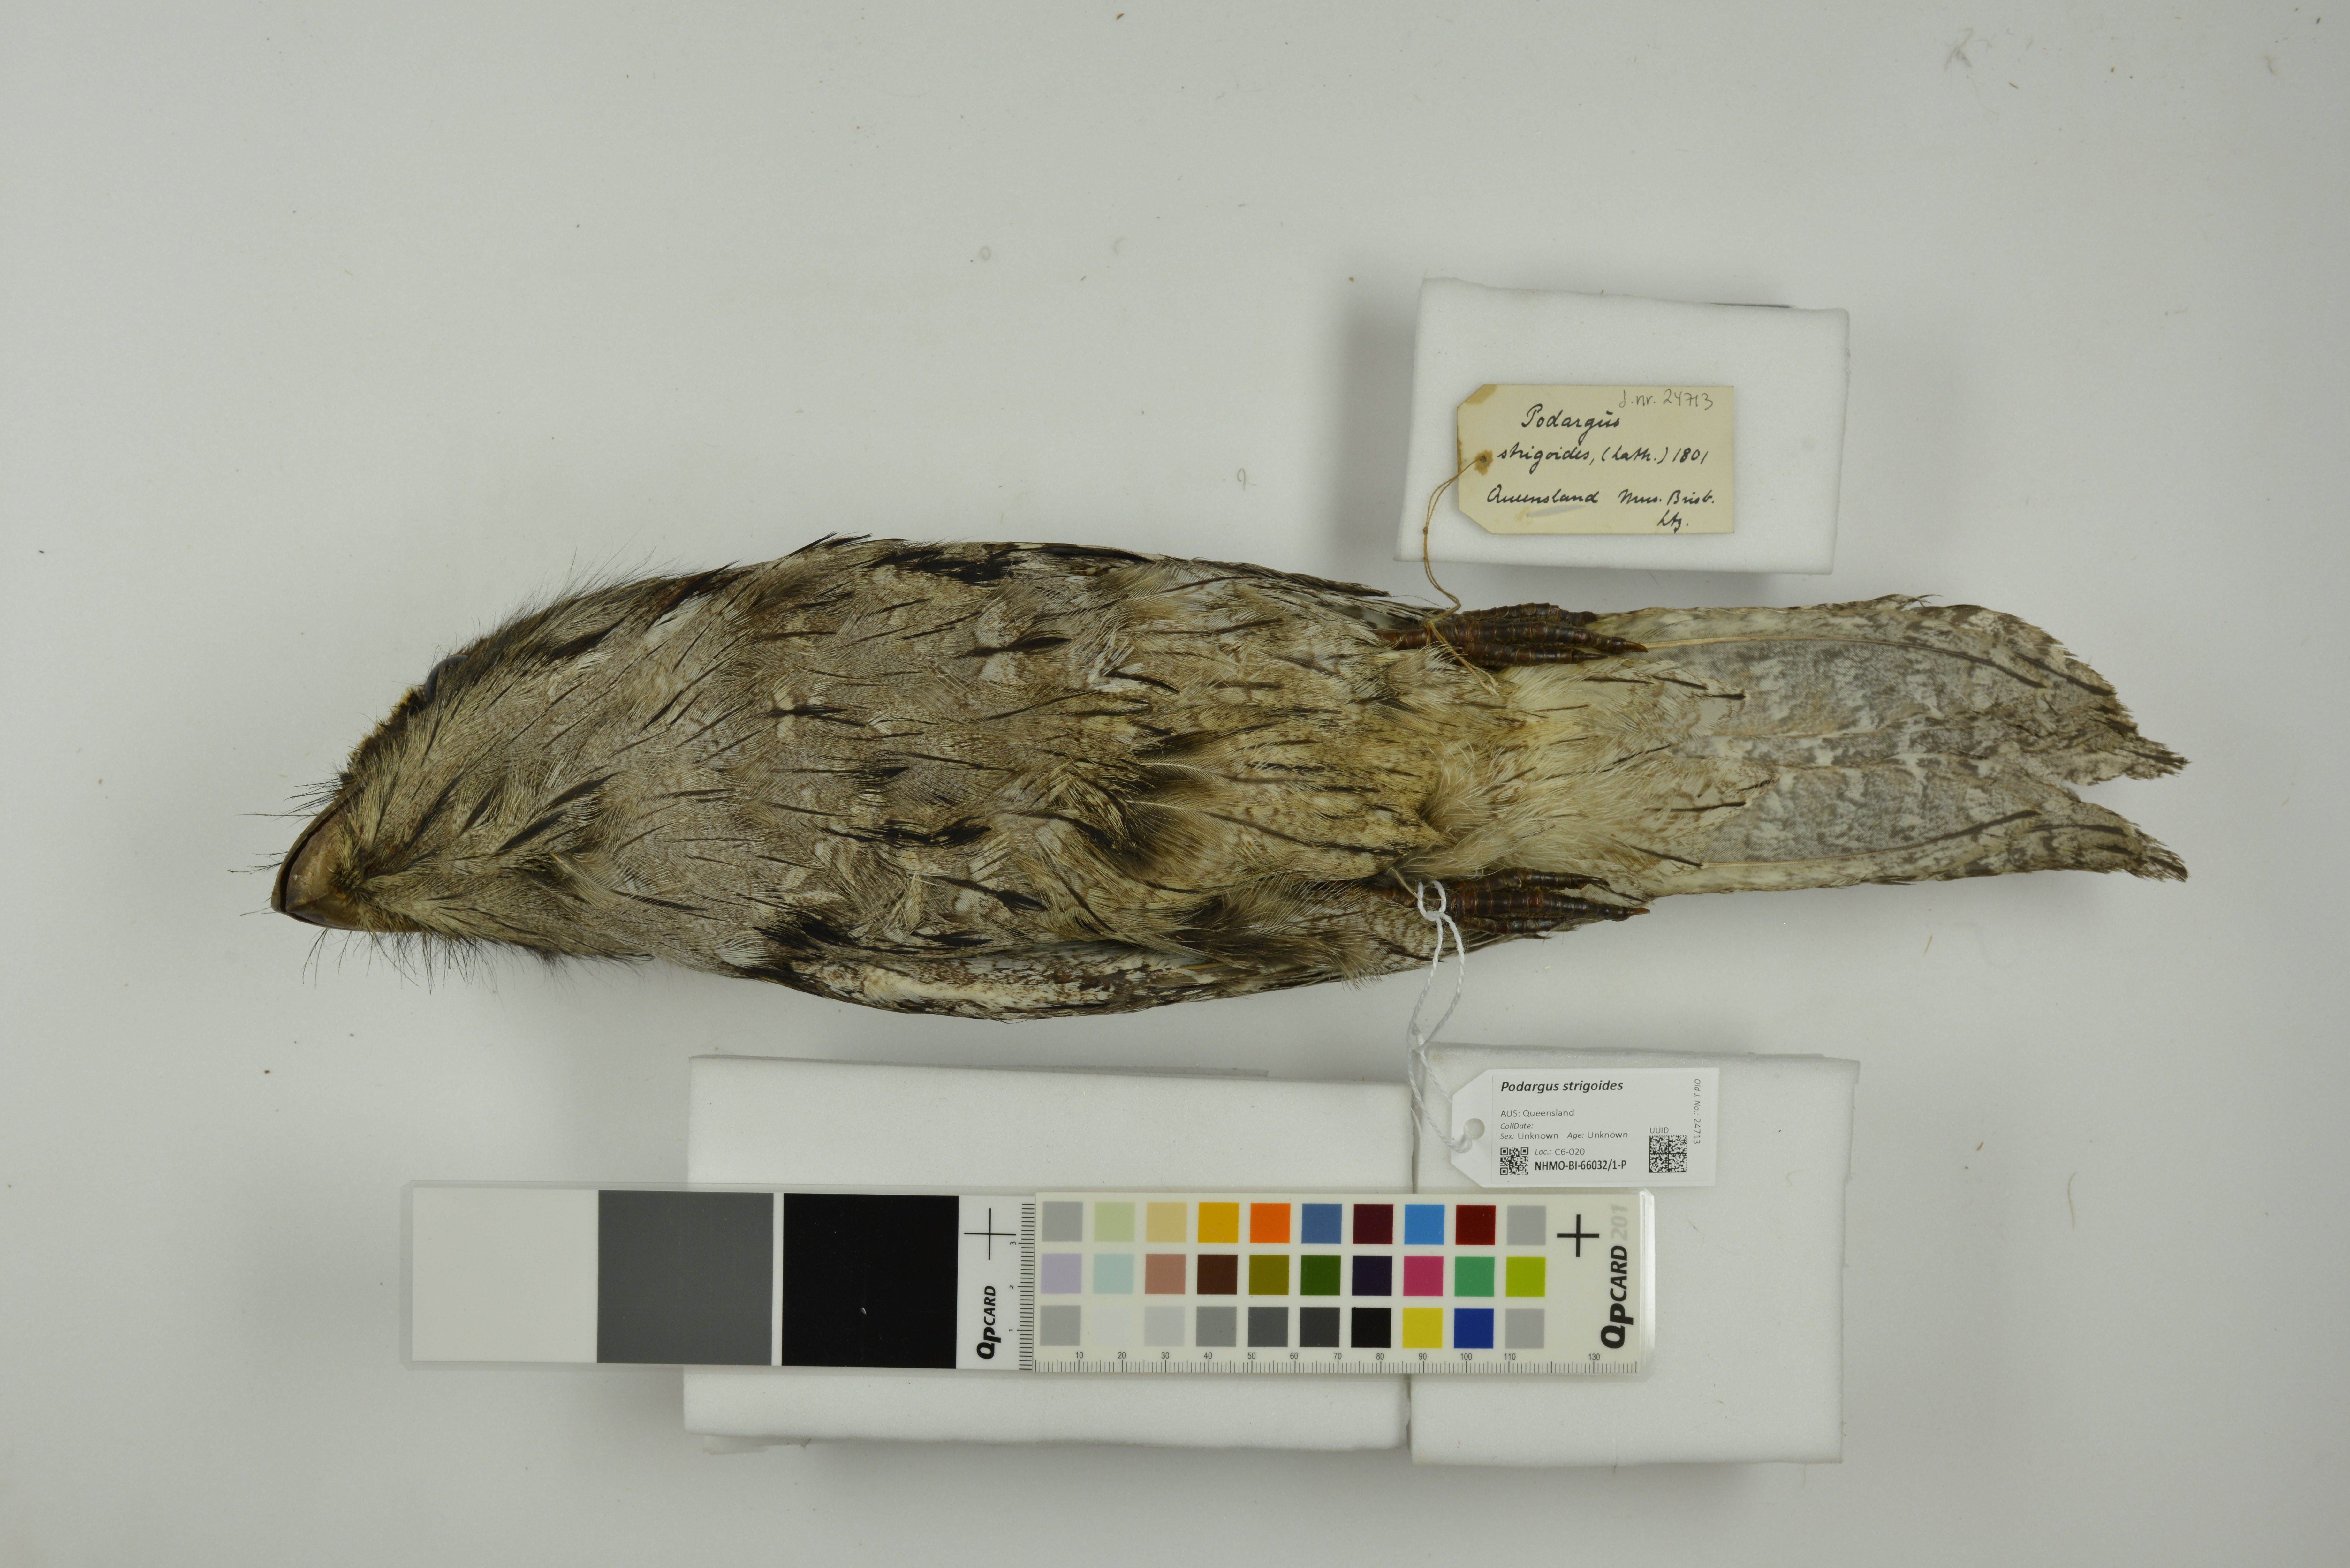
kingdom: Animalia
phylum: Chordata
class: Aves
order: Caprimulgiformes
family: Podargidae
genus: Podargus
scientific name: Podargus strigoides
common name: Tawny frogmouth
